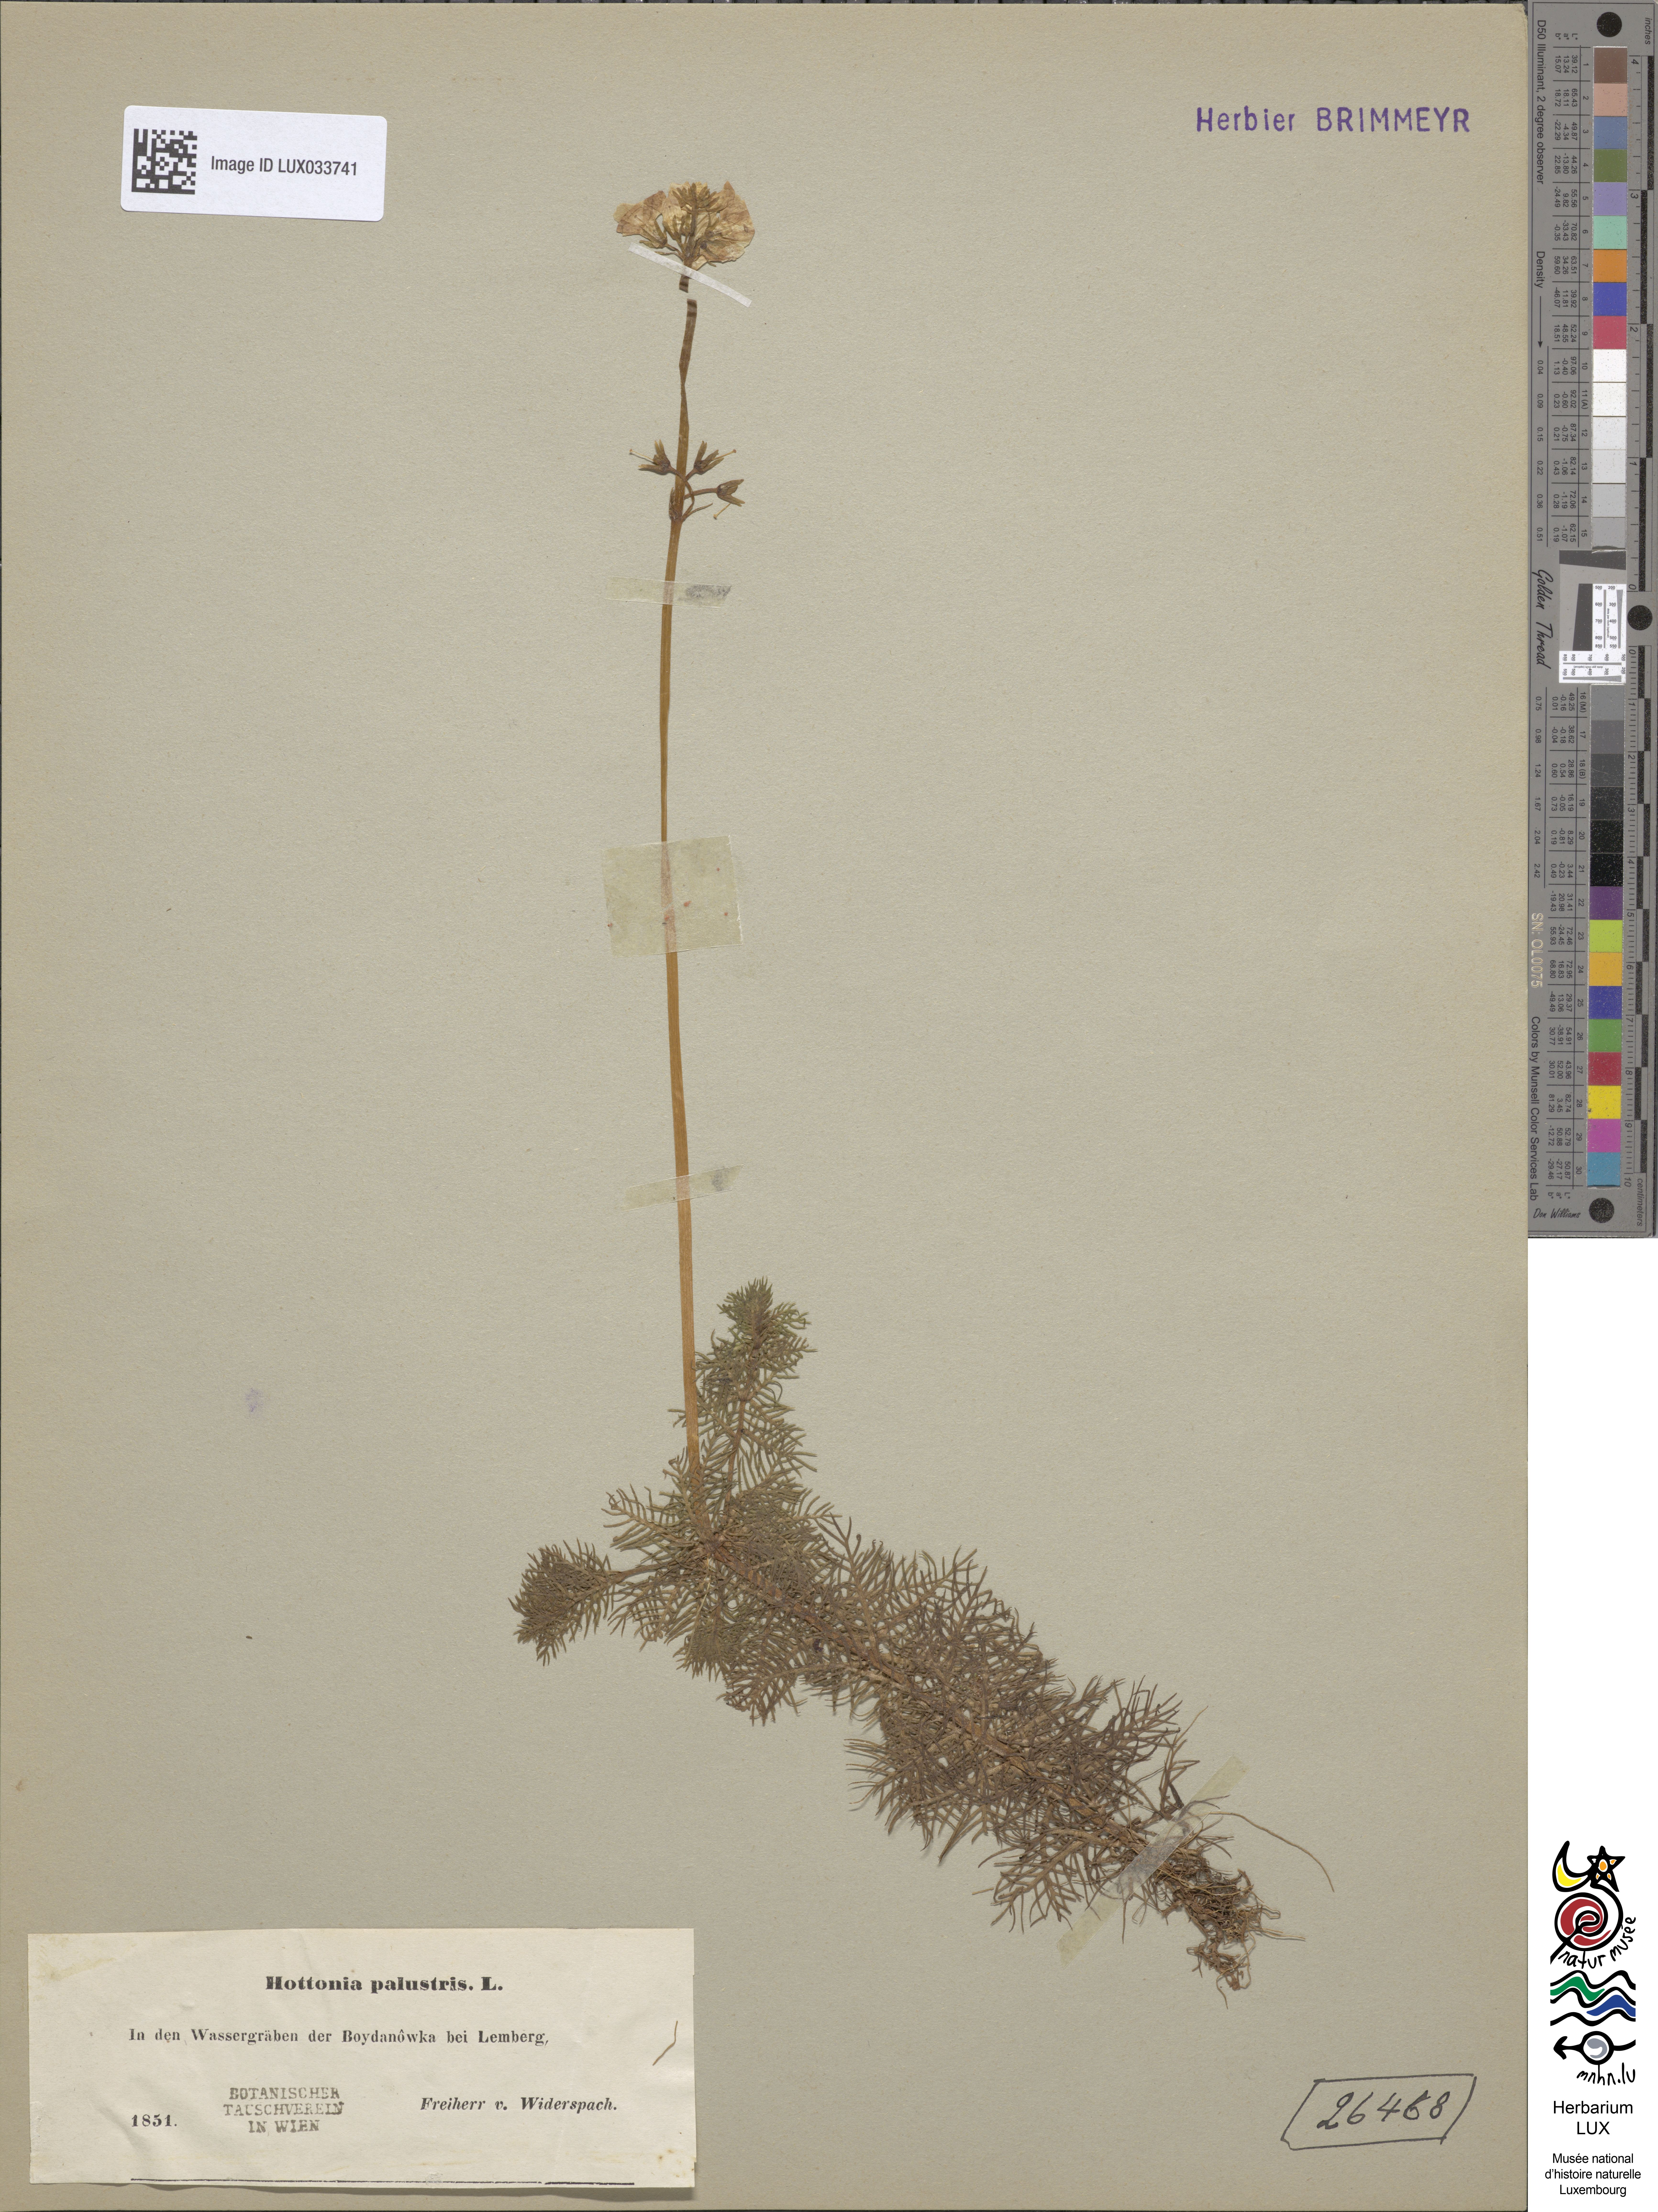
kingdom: Plantae
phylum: Tracheophyta
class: Magnoliopsida
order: Ericales
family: Primulaceae
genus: Hottonia
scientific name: Hottonia palustris
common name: Water-violet
